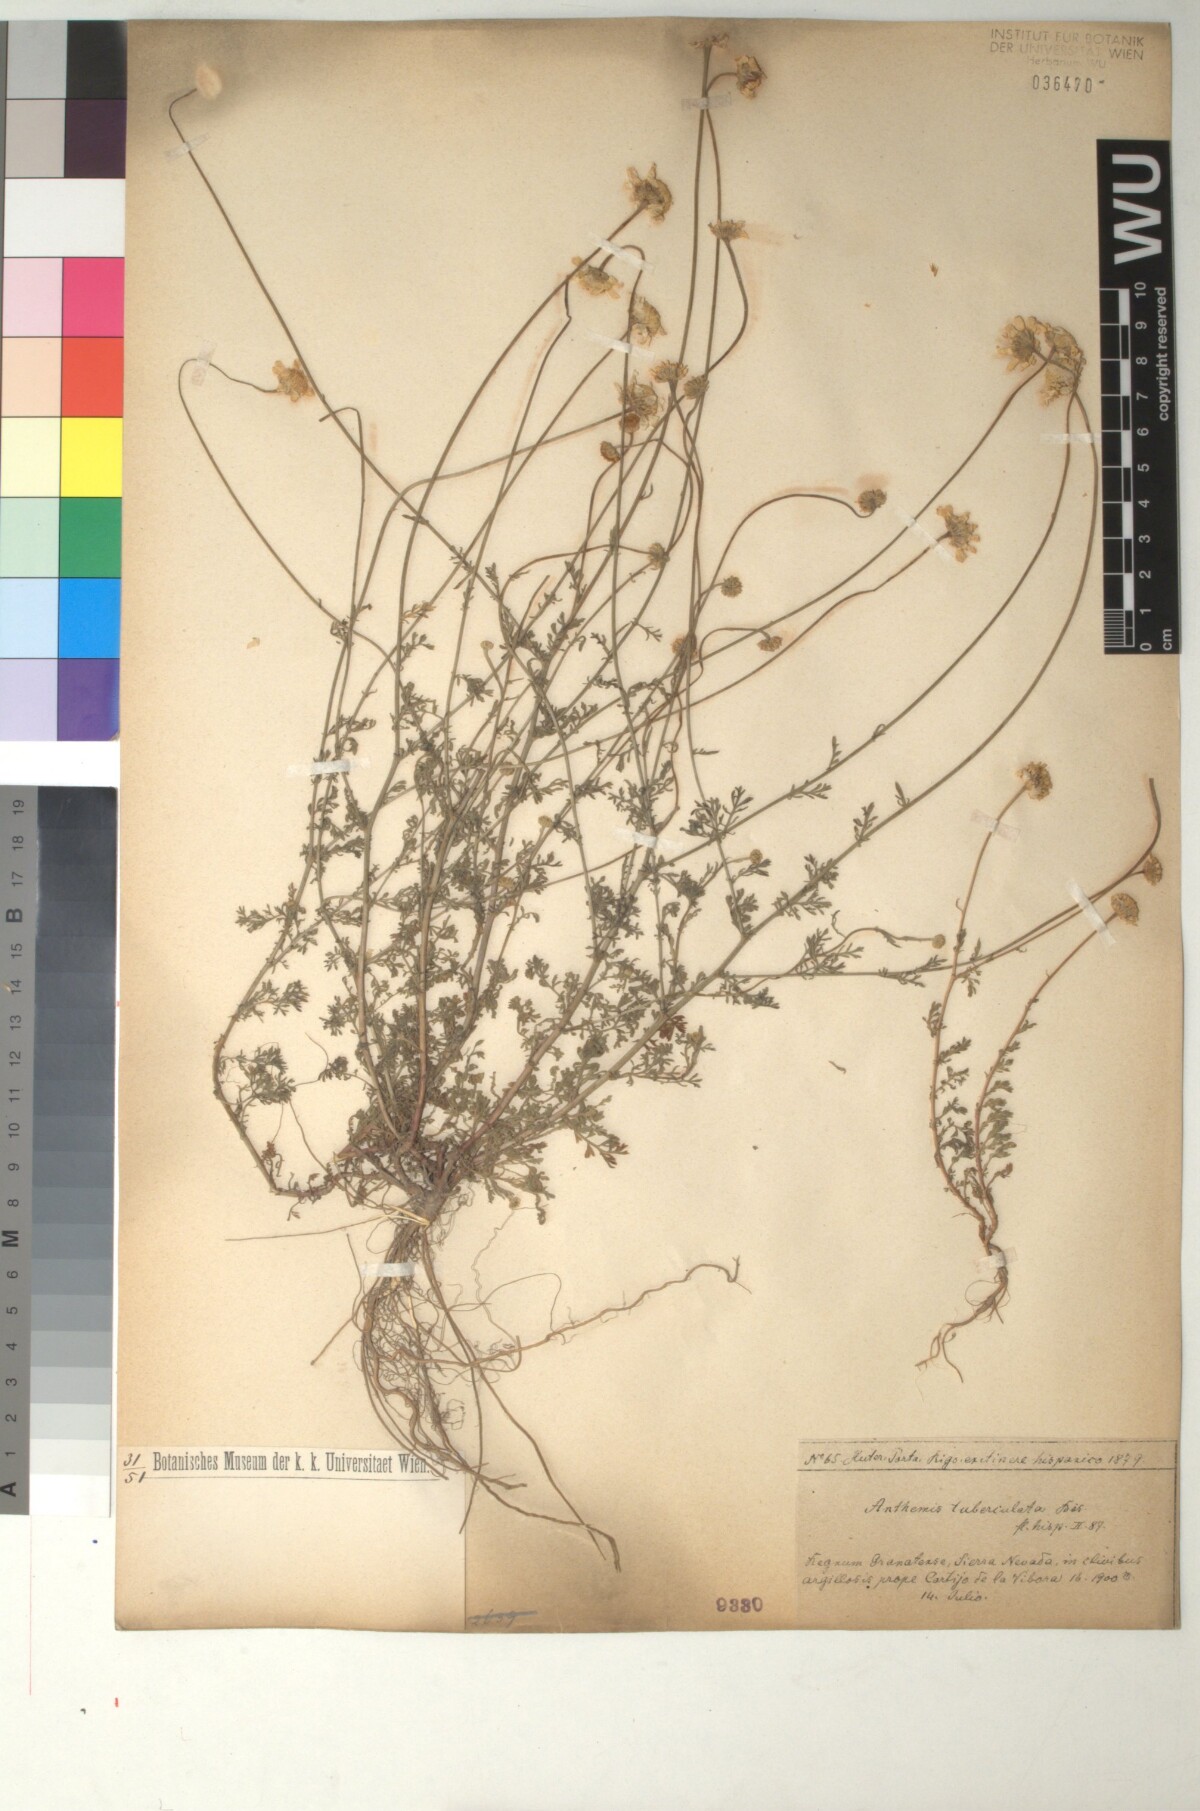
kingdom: Plantae
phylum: Tracheophyta
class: Magnoliopsida
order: Asterales
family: Asteraceae
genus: Anthemis
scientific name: Anthemis pedunculata
